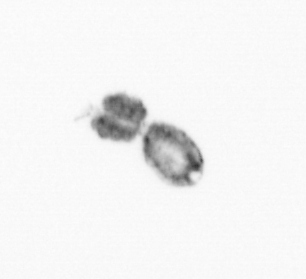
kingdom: Animalia
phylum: Arthropoda
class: Copepoda
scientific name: Copepoda
